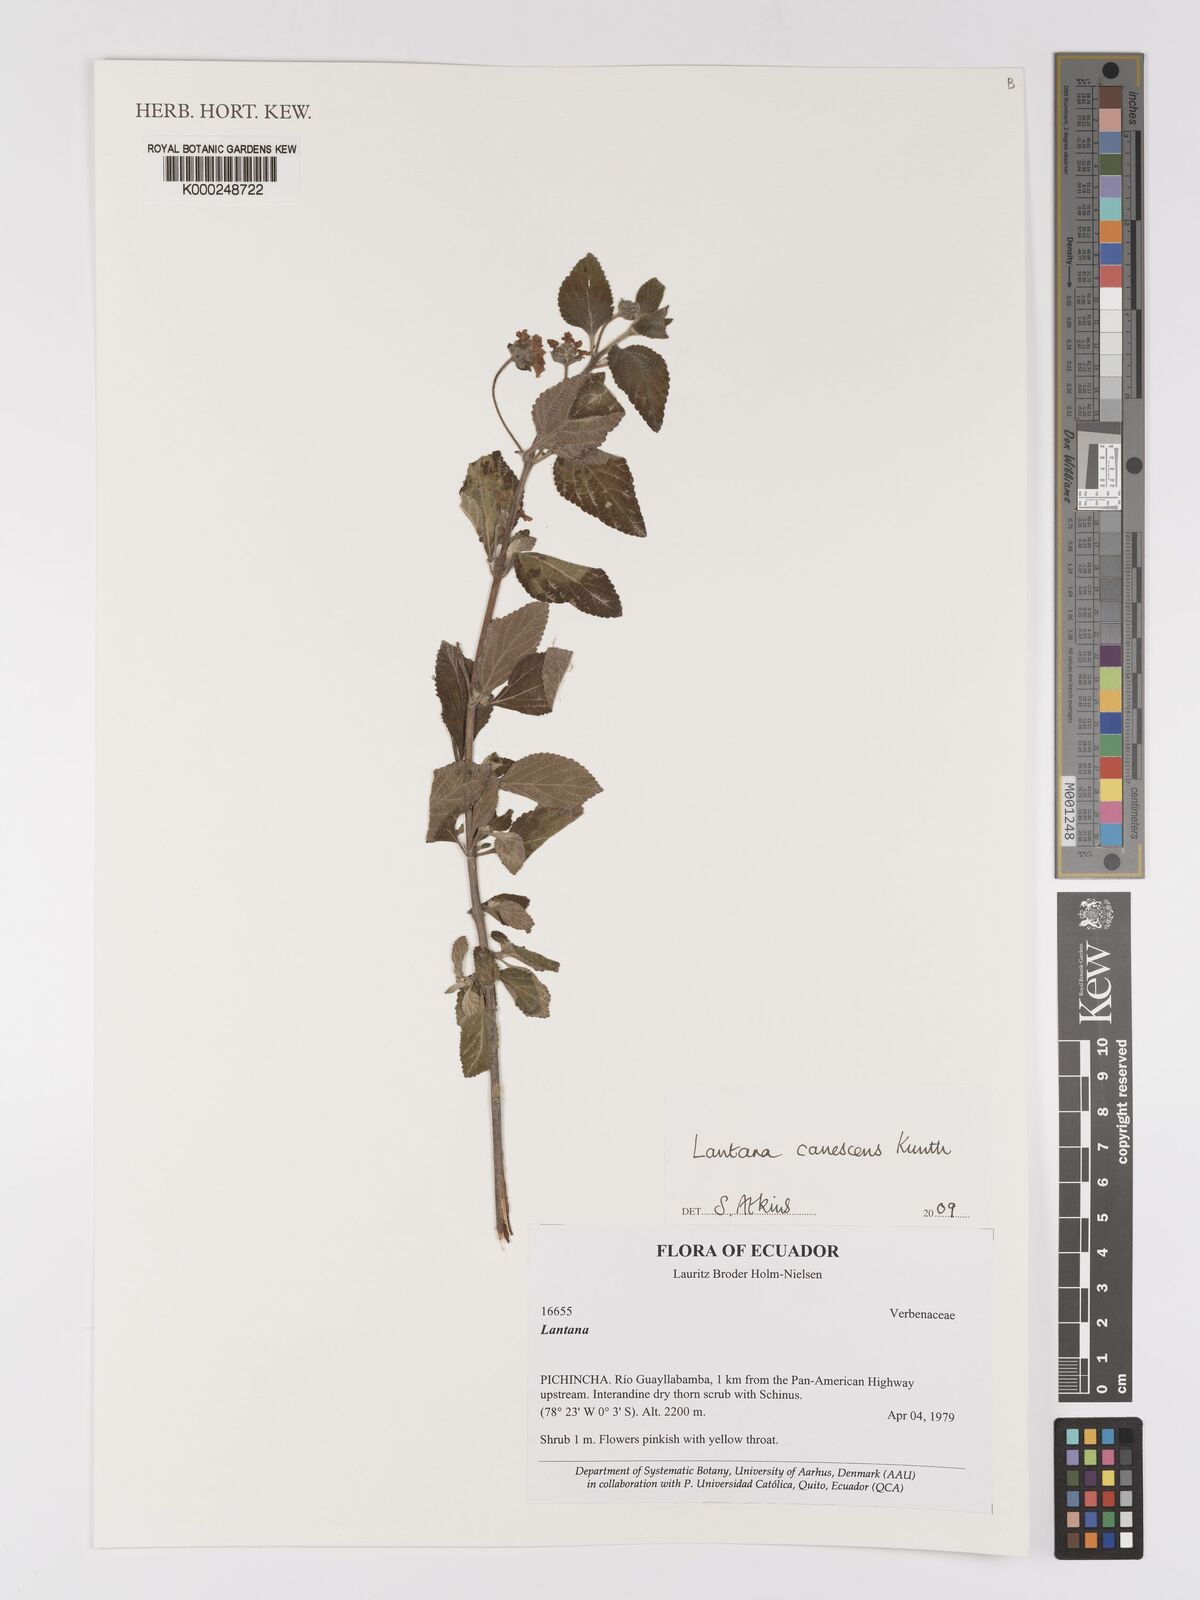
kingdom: Plantae
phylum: Tracheophyta
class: Magnoliopsida
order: Lamiales
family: Verbenaceae
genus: Lantana
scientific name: Lantana canescens
